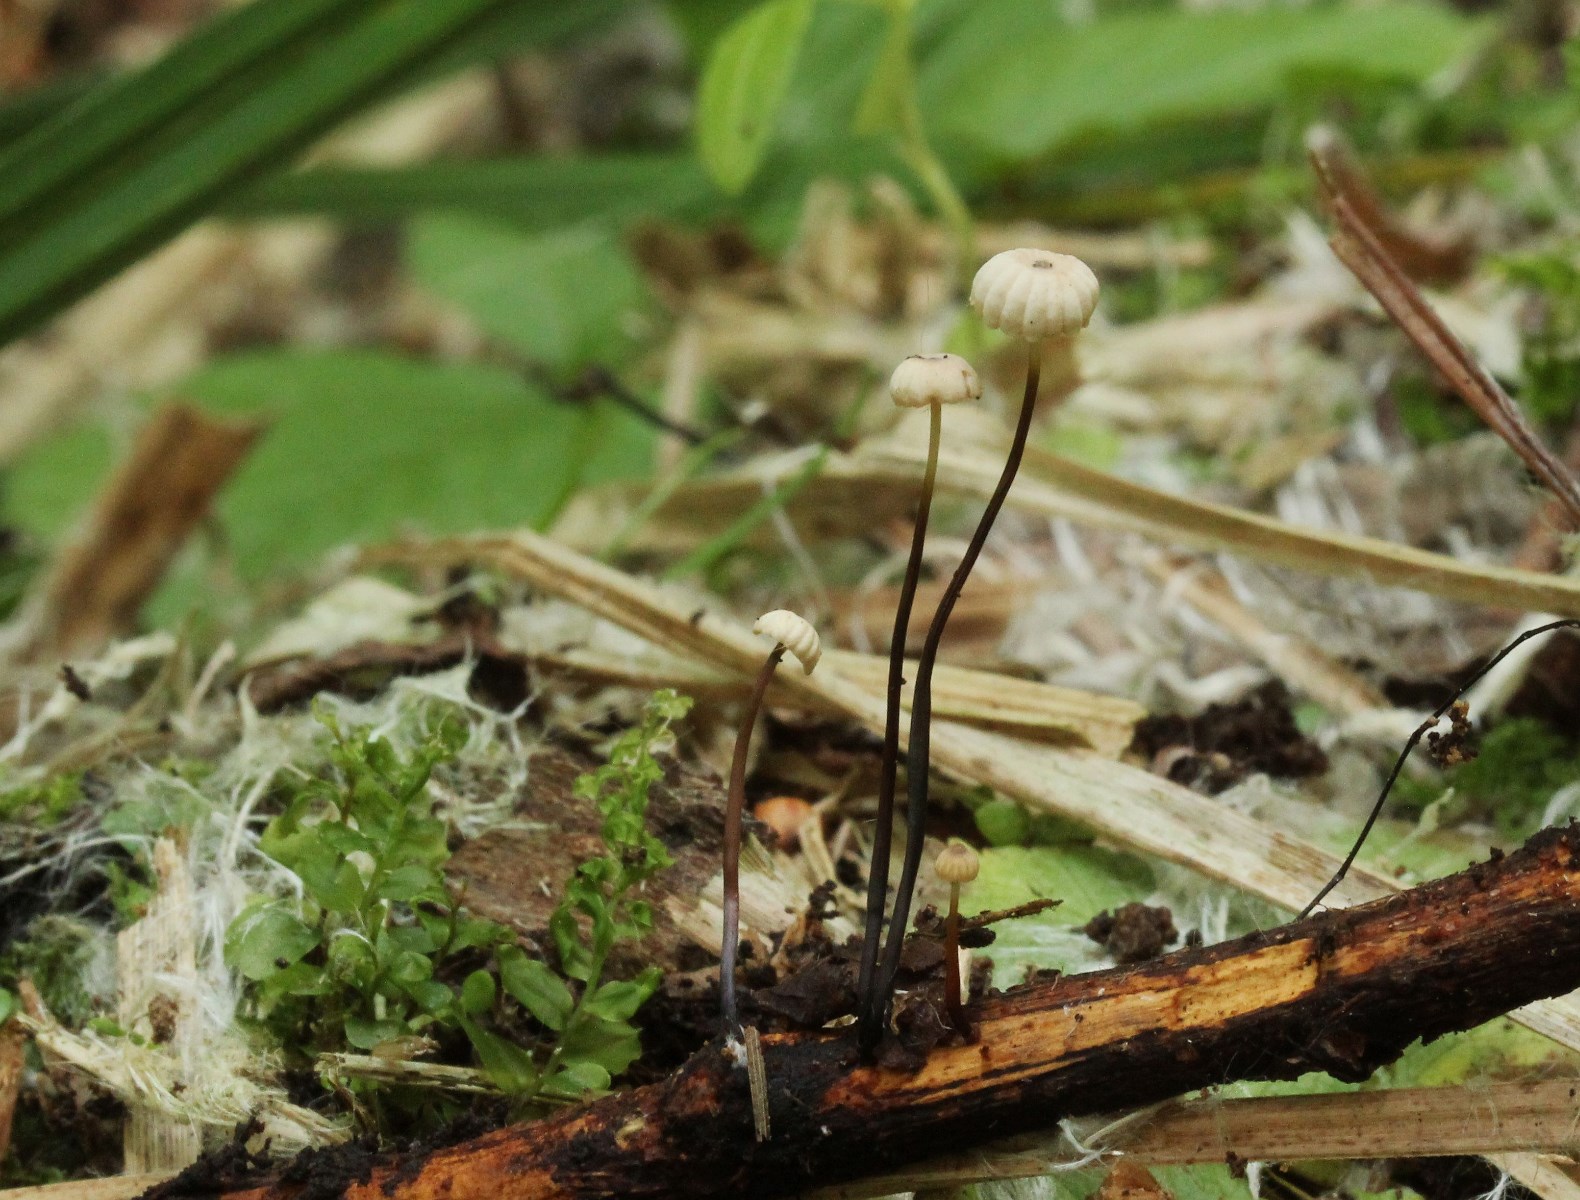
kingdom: Fungi
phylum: Basidiomycota
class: Agaricomycetes
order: Agaricales
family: Marasmiaceae
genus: Marasmius
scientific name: Marasmius rotula
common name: hjul-bruskhat
